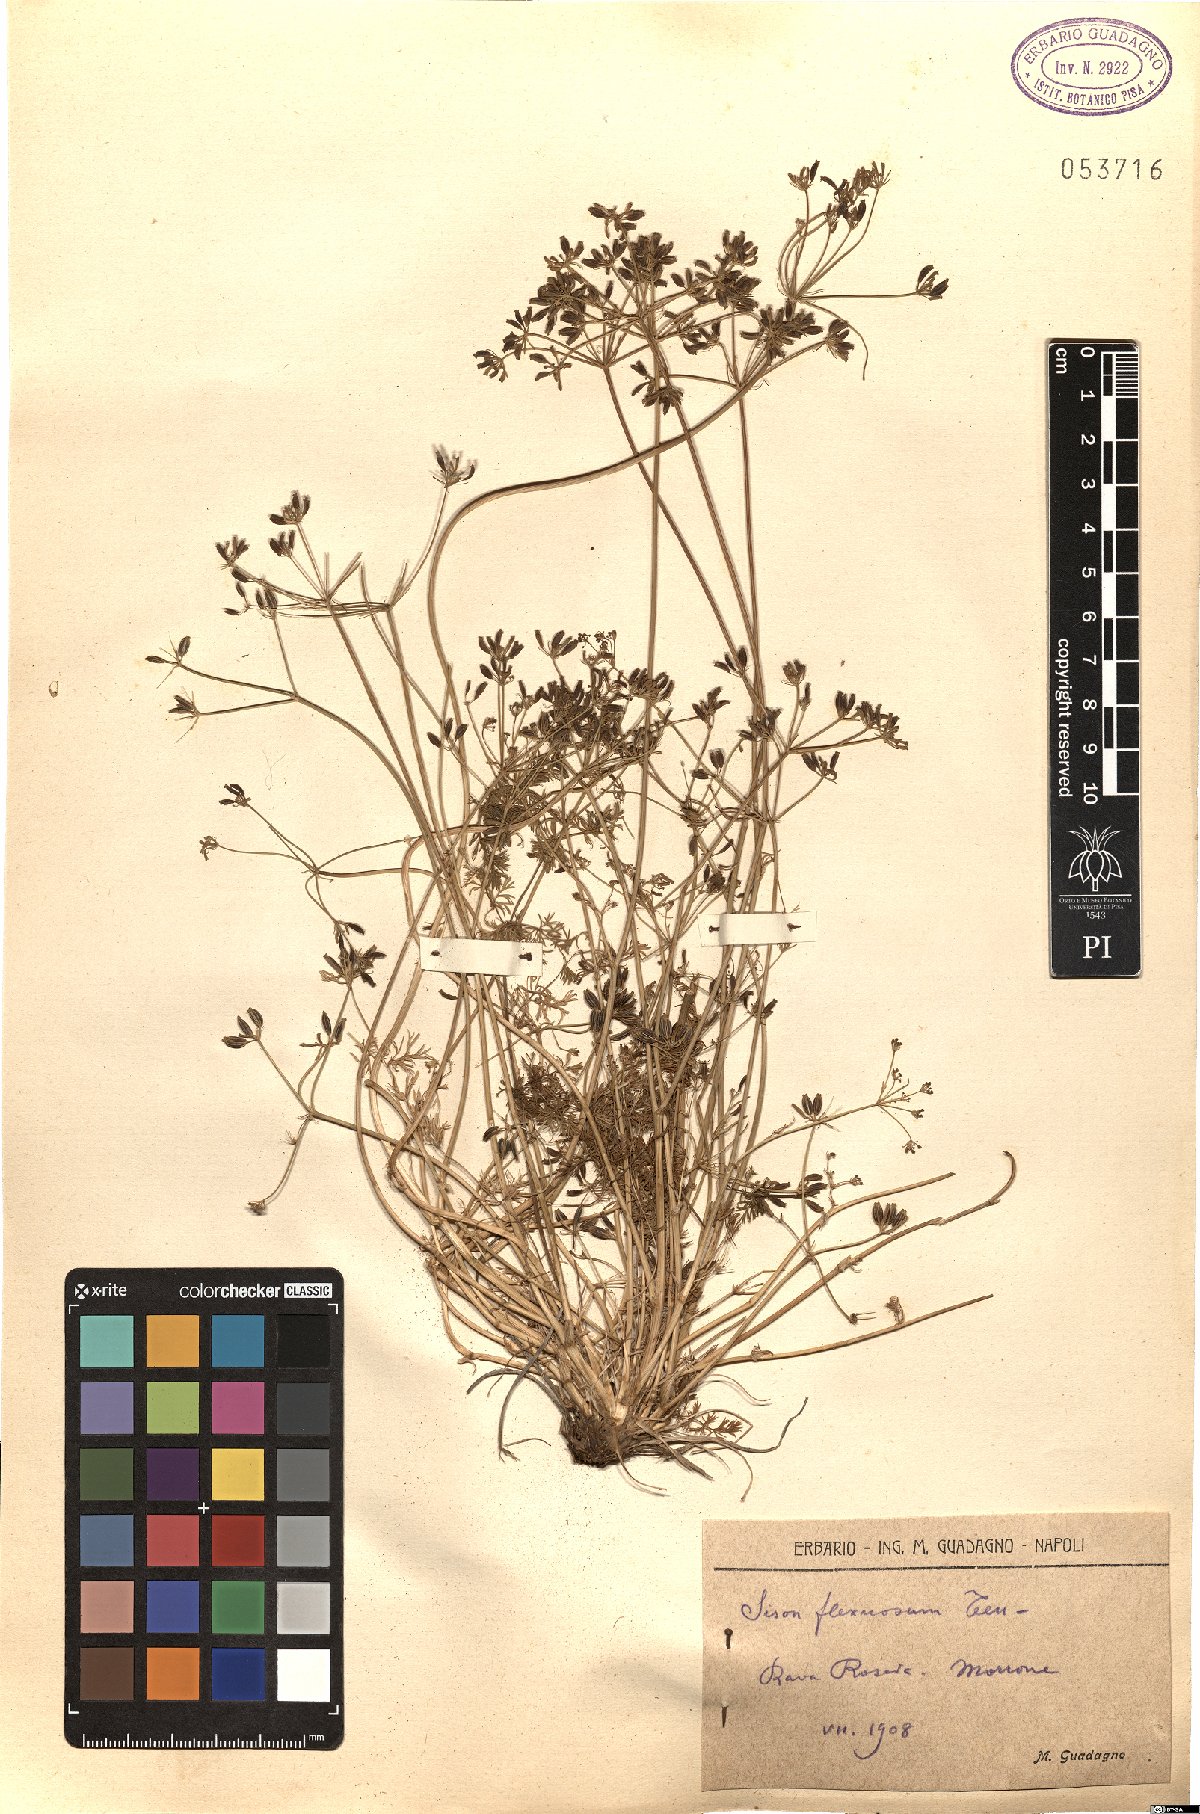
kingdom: Plantae
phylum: Tracheophyta
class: Magnoliopsida
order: Apiales
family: Apiaceae
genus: Selinum
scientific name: Selinum carvifolia
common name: Cambridge milk-parsley
